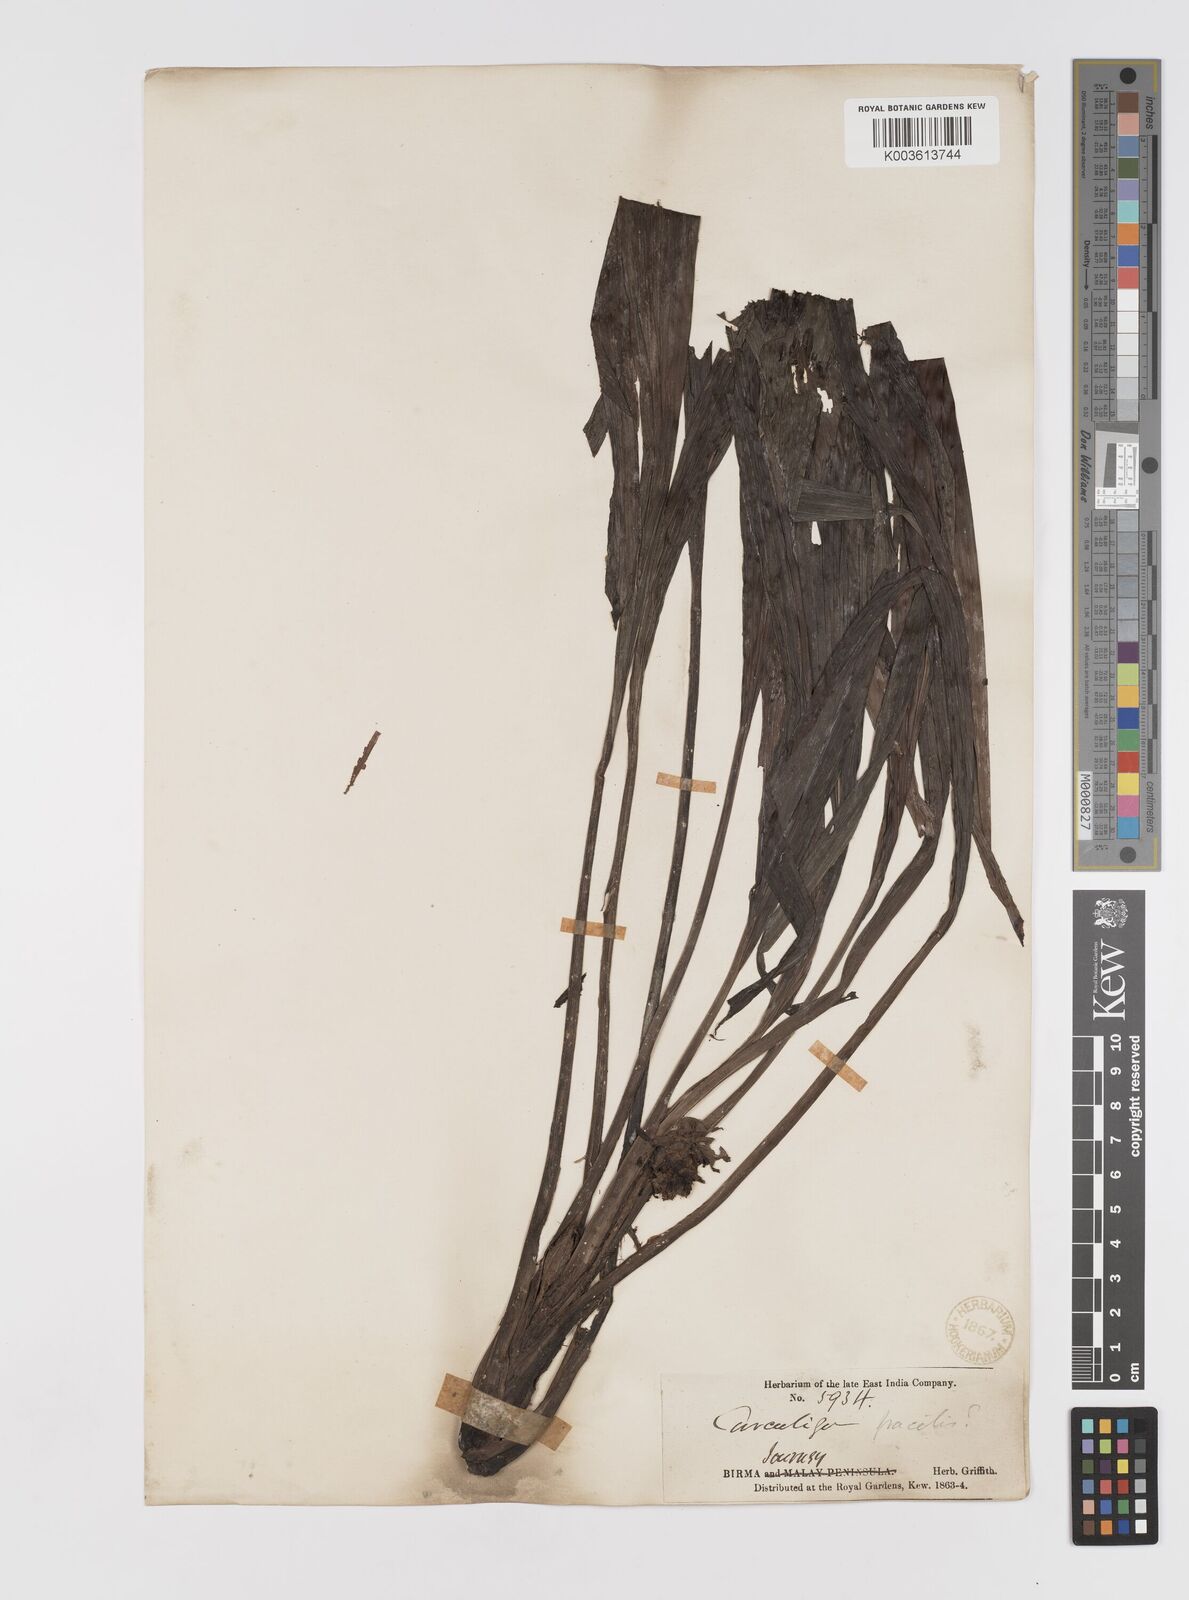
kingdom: Plantae
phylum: Tracheophyta
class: Liliopsida
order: Asparagales
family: Hypoxidaceae
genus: Curculigo
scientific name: Curculigo capitulata
